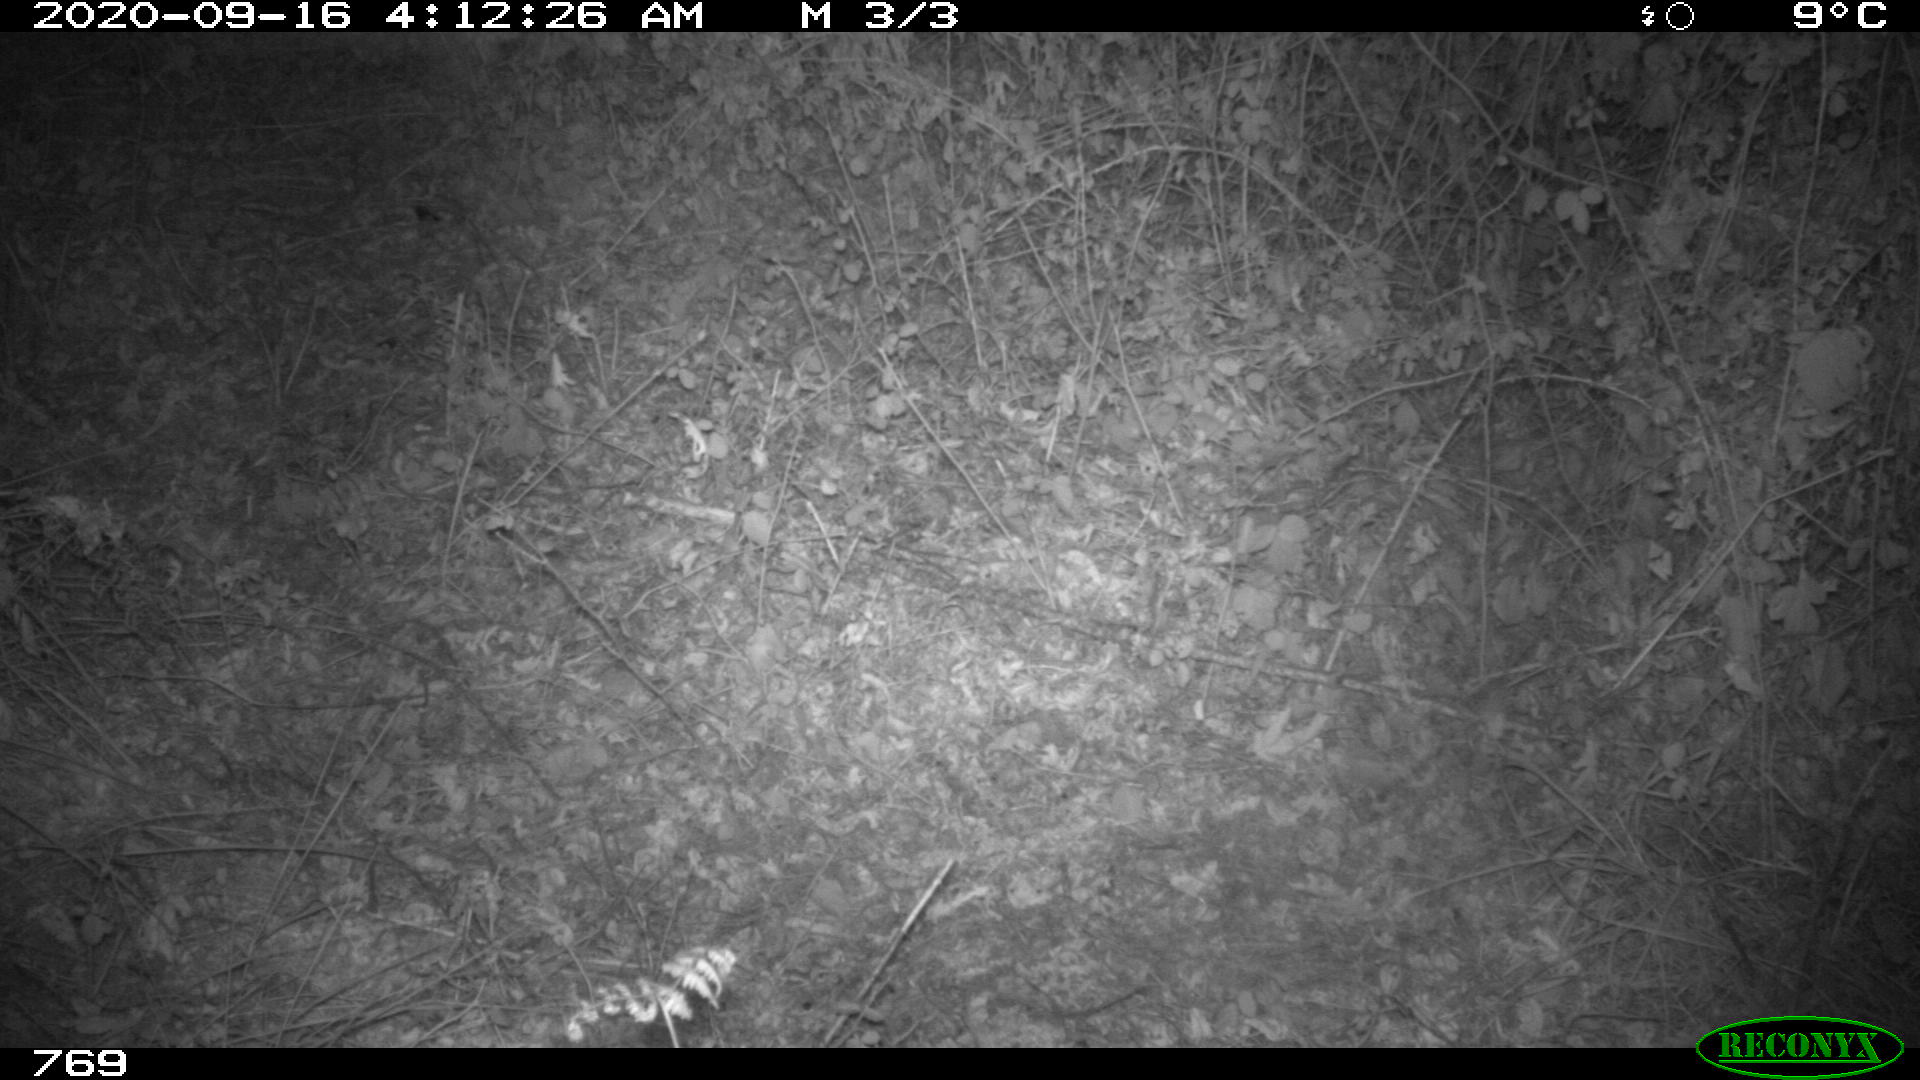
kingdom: Animalia
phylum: Chordata
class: Mammalia
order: Artiodactyla
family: Cervidae
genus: Capreolus
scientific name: Capreolus capreolus
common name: Western roe deer
